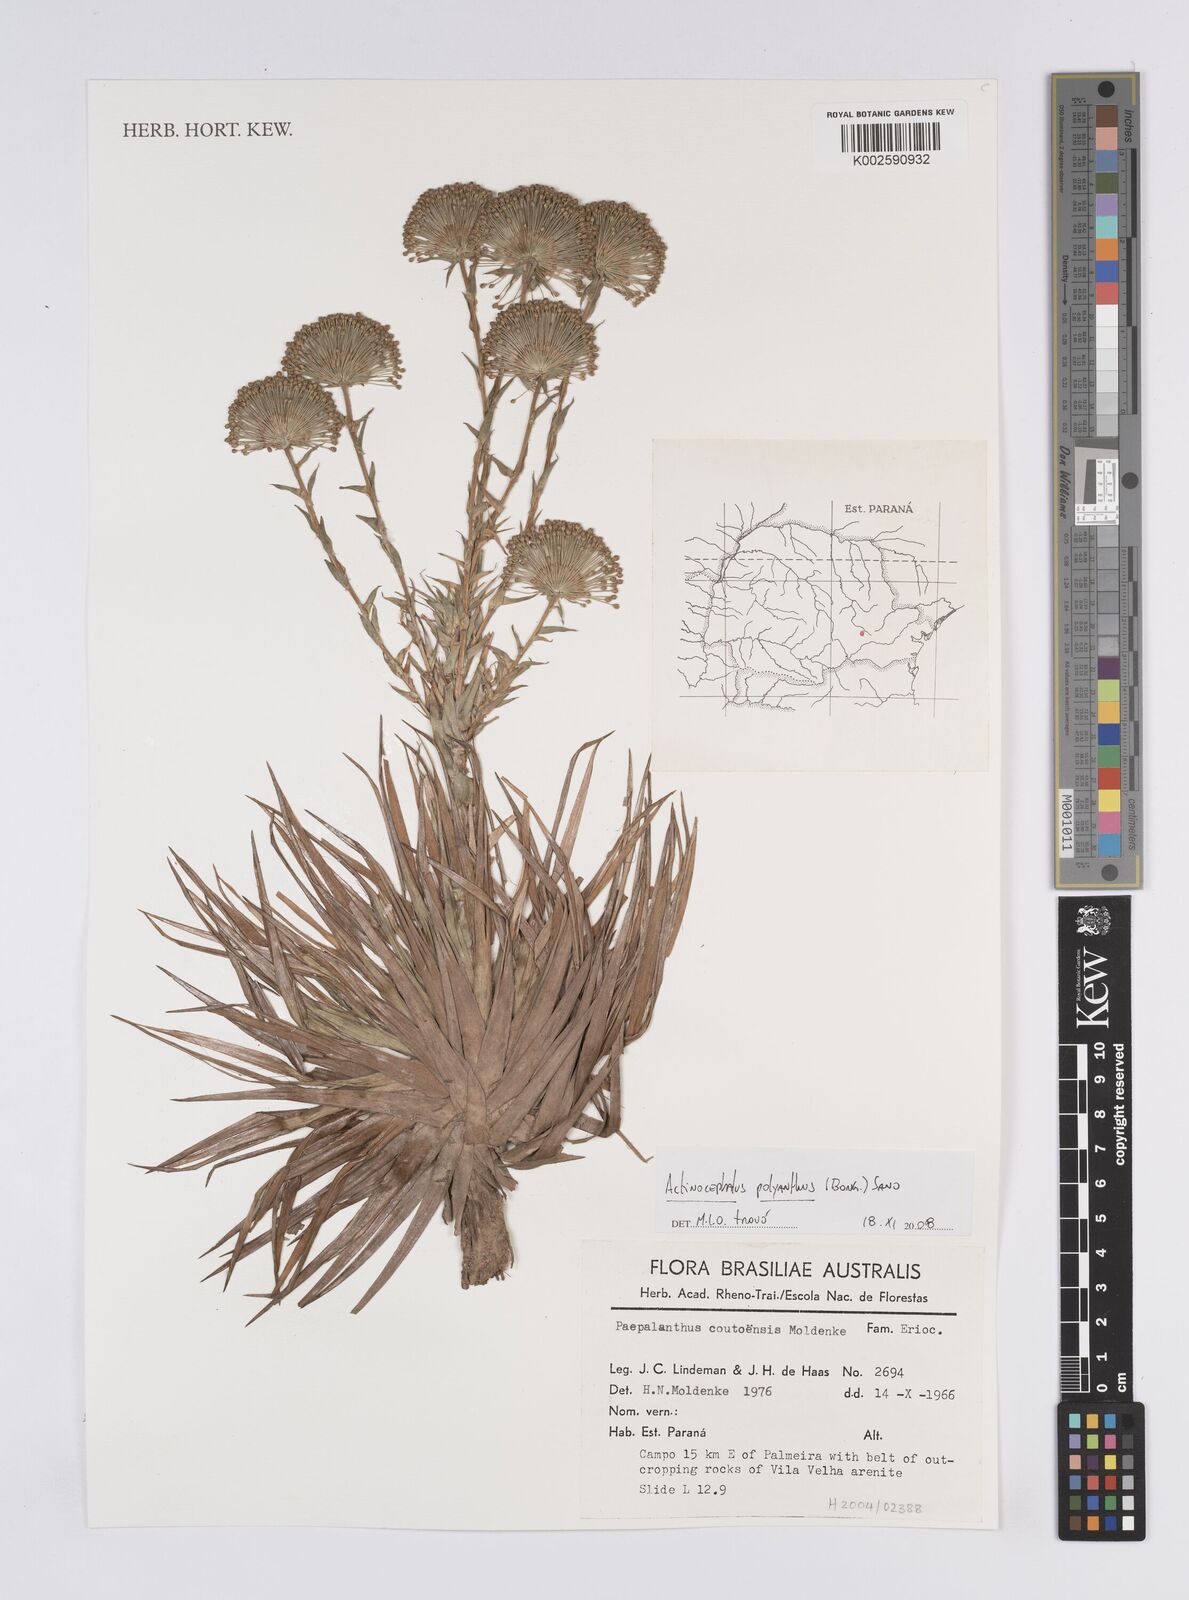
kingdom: Plantae
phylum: Tracheophyta
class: Liliopsida
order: Poales
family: Eriocaulaceae
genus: Paepalanthus
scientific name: Paepalanthus polyanthus
